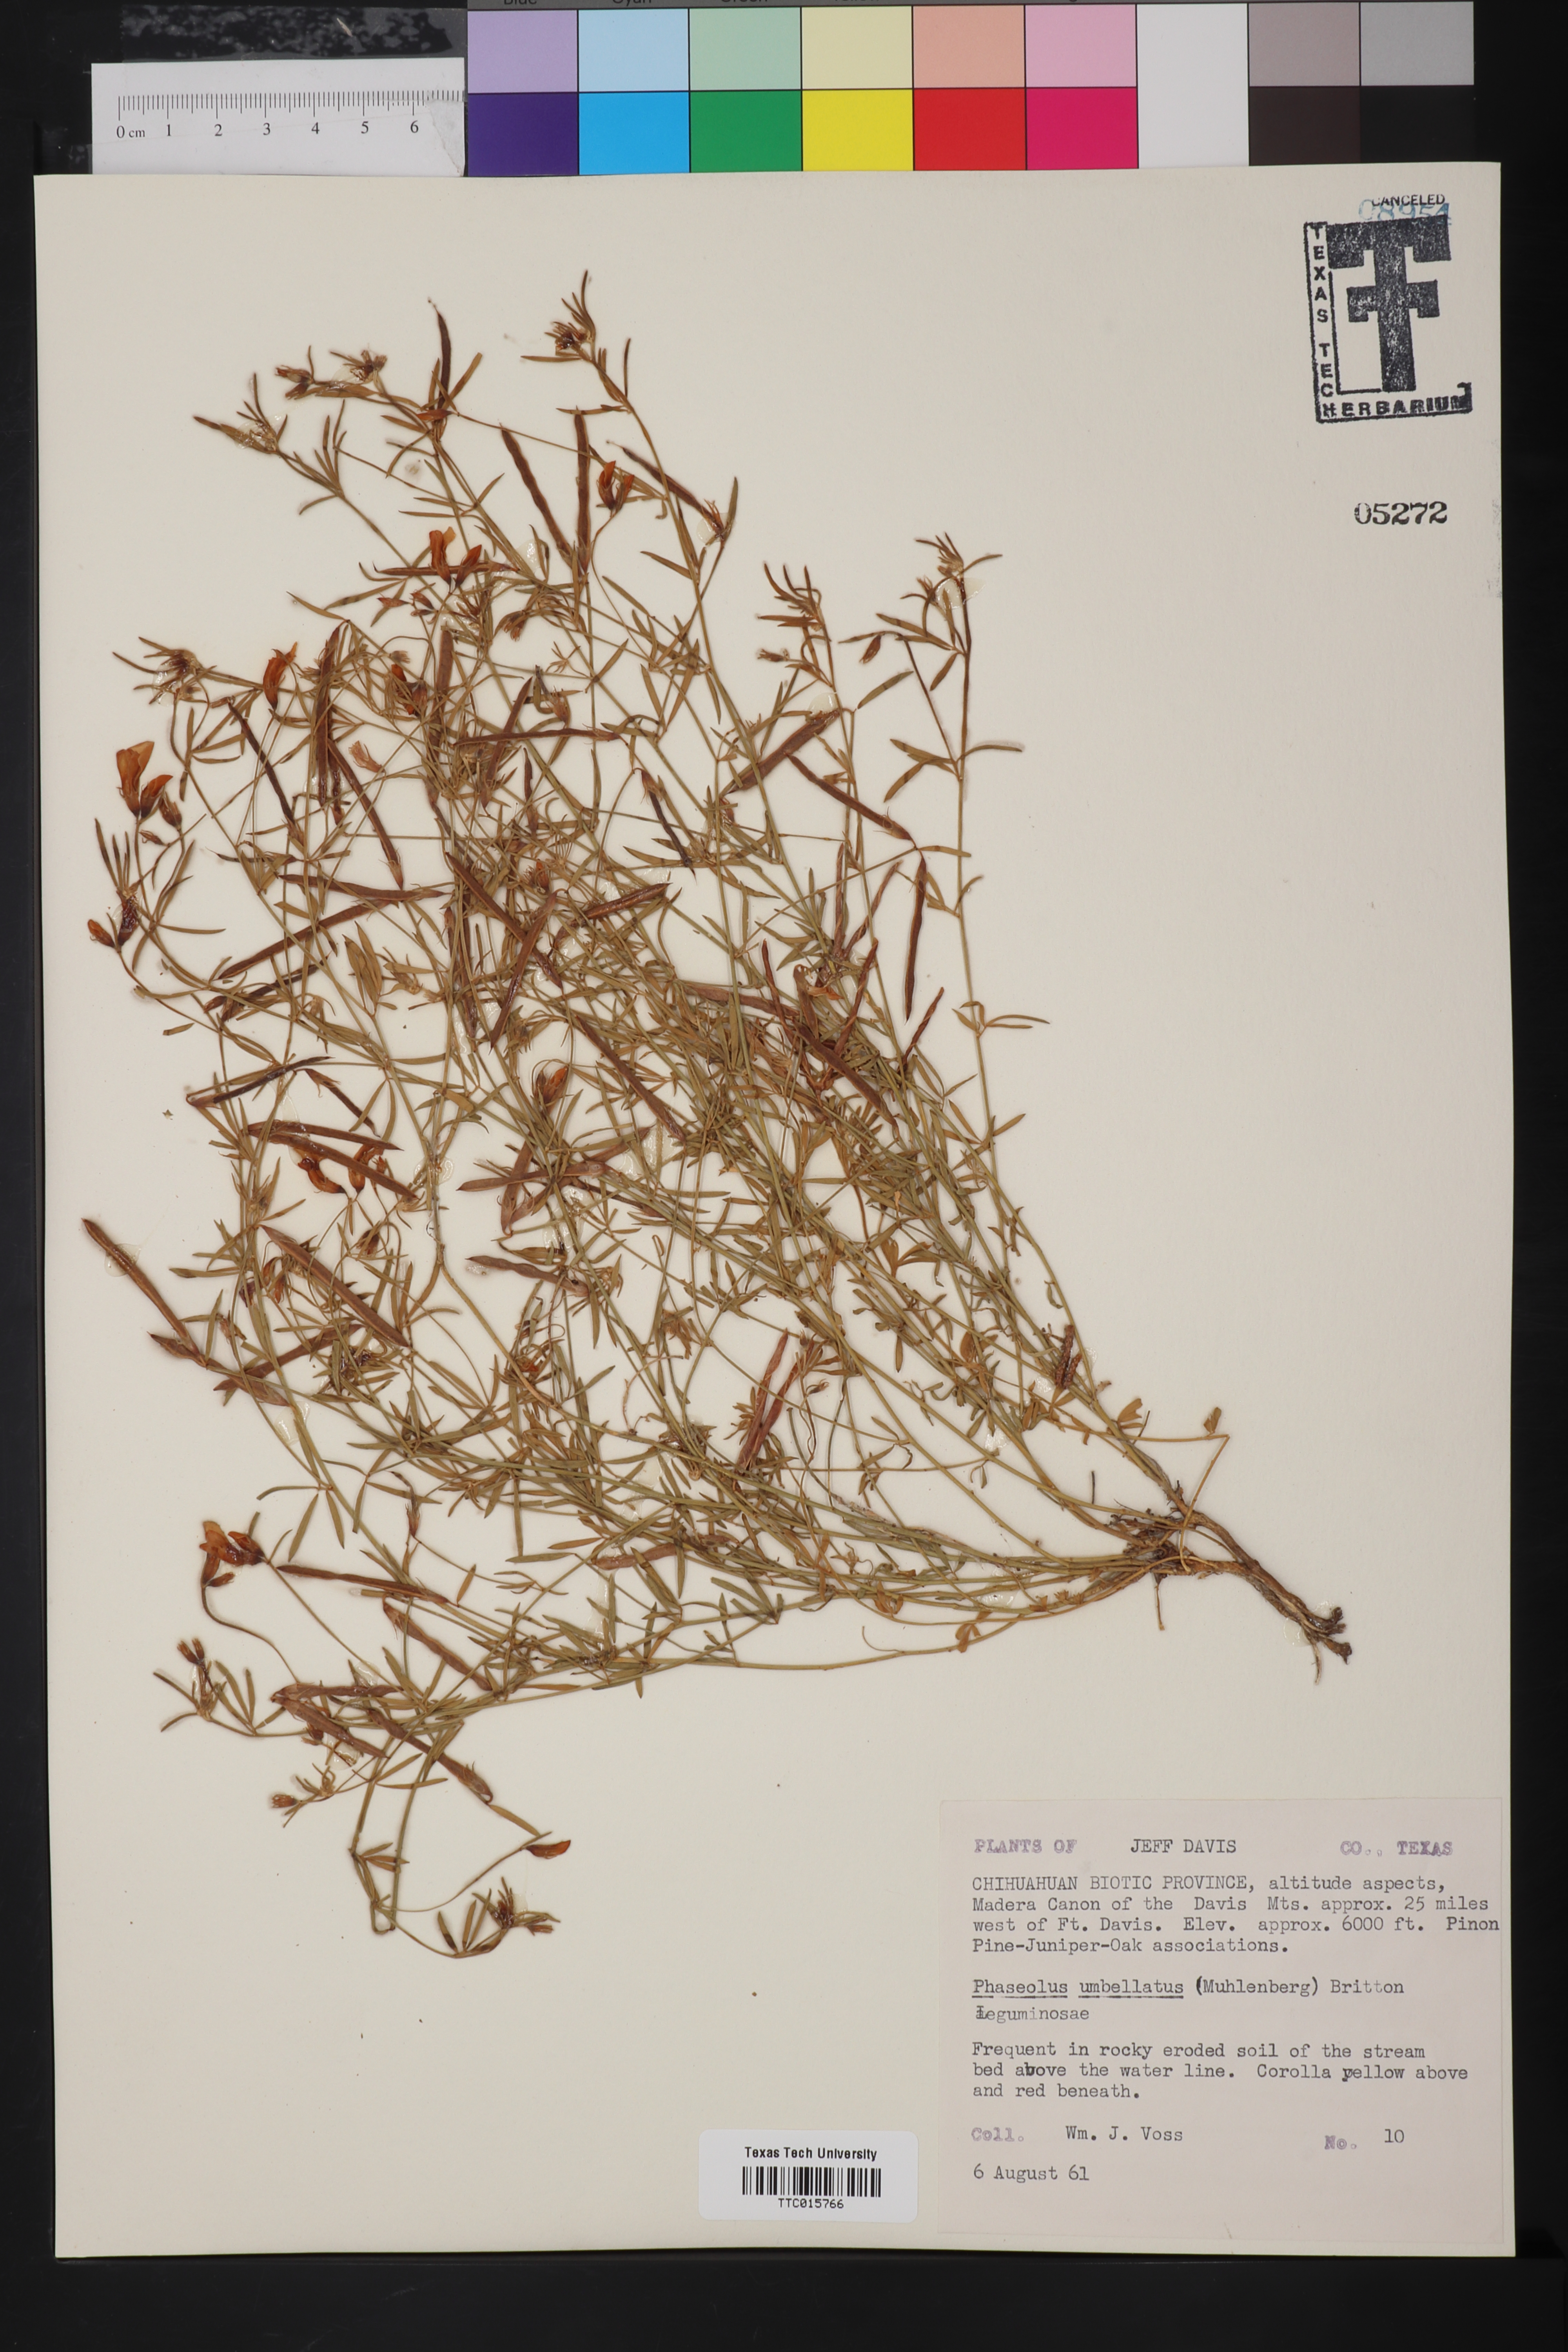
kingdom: Plantae
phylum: Tracheophyta
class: Magnoliopsida
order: Fabales
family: Fabaceae
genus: Strophostyles
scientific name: Strophostyles umbellata
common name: Perennial wild bean
